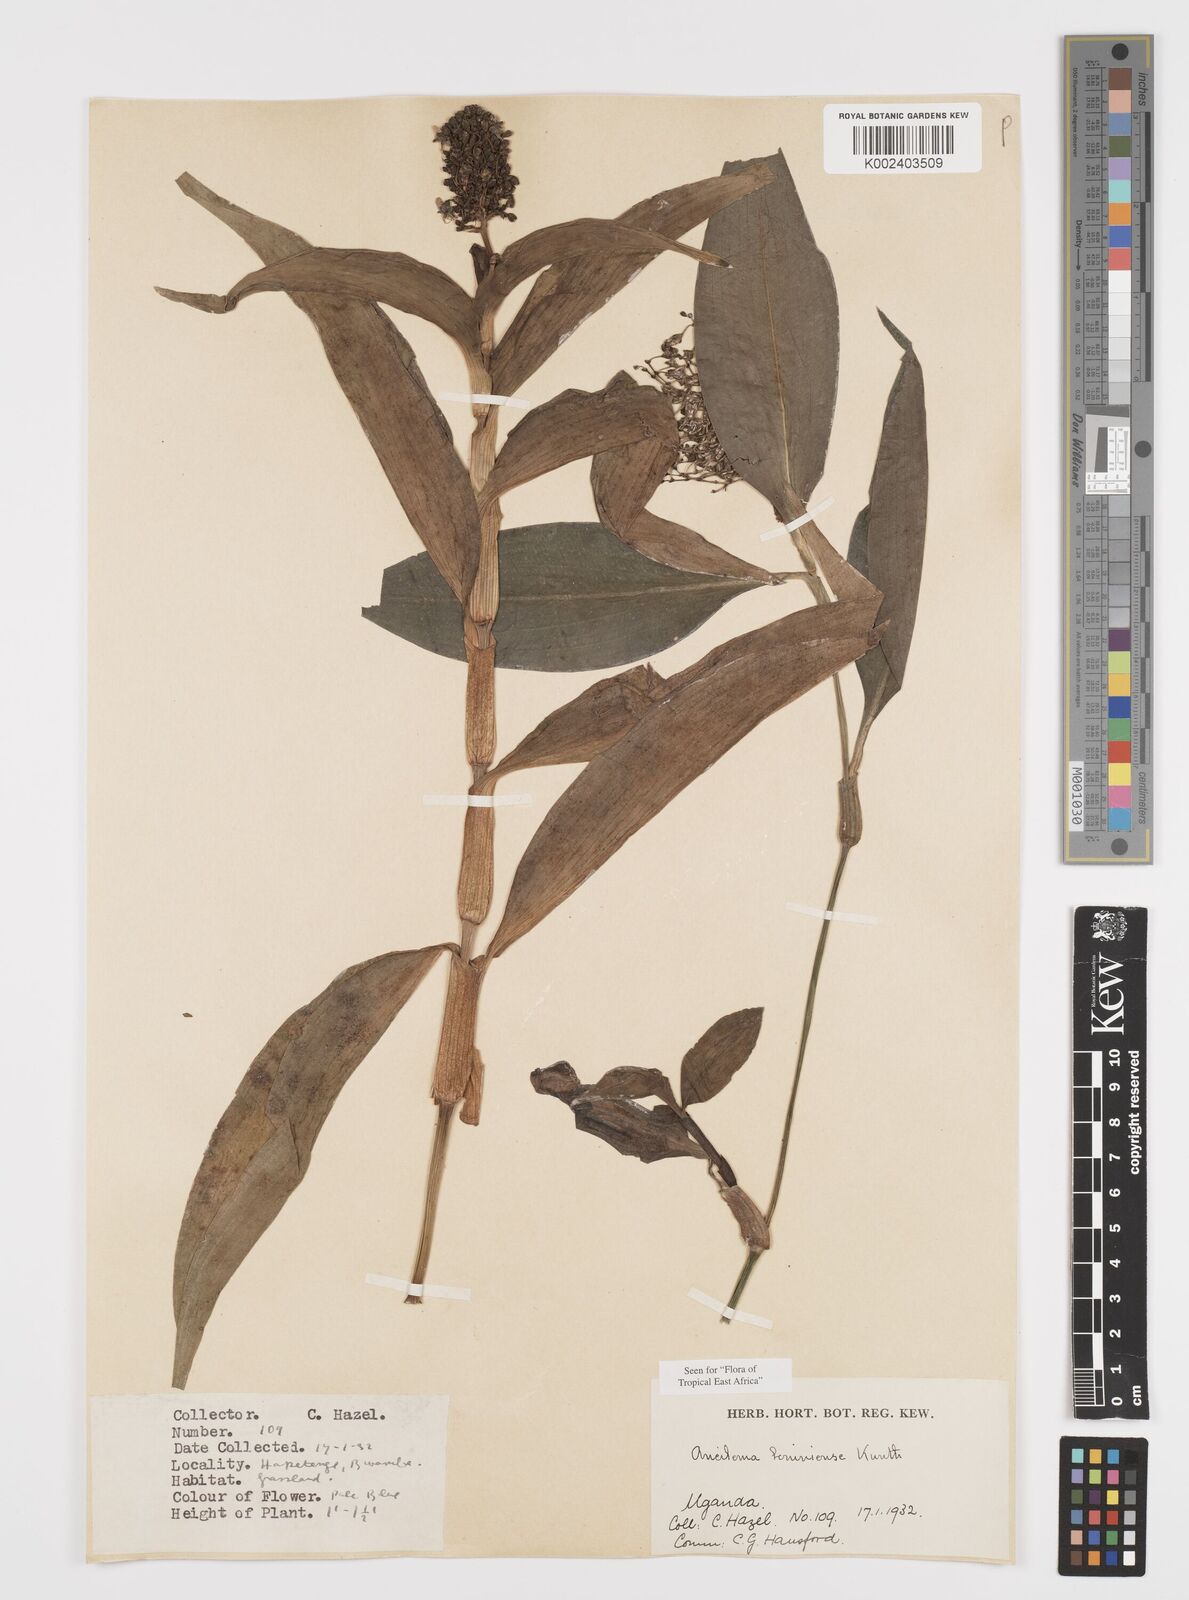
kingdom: Plantae
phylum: Tracheophyta
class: Liliopsida
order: Commelinales
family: Commelinaceae
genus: Aneilema
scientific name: Aneilema beniniense
